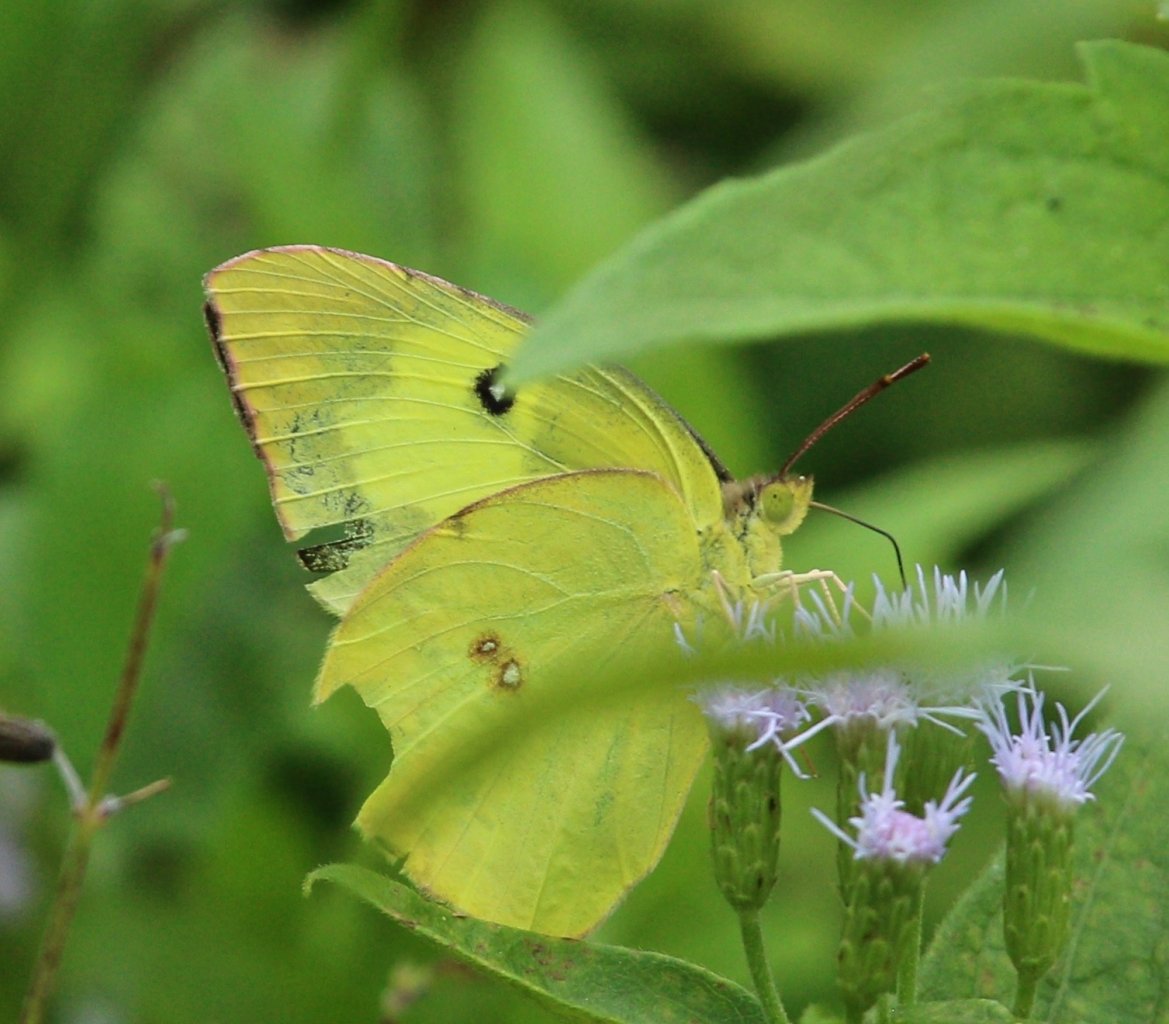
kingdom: Animalia
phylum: Arthropoda
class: Insecta
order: Lepidoptera
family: Pieridae
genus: Zerene
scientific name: Zerene cesonia
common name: Southern Dogface
